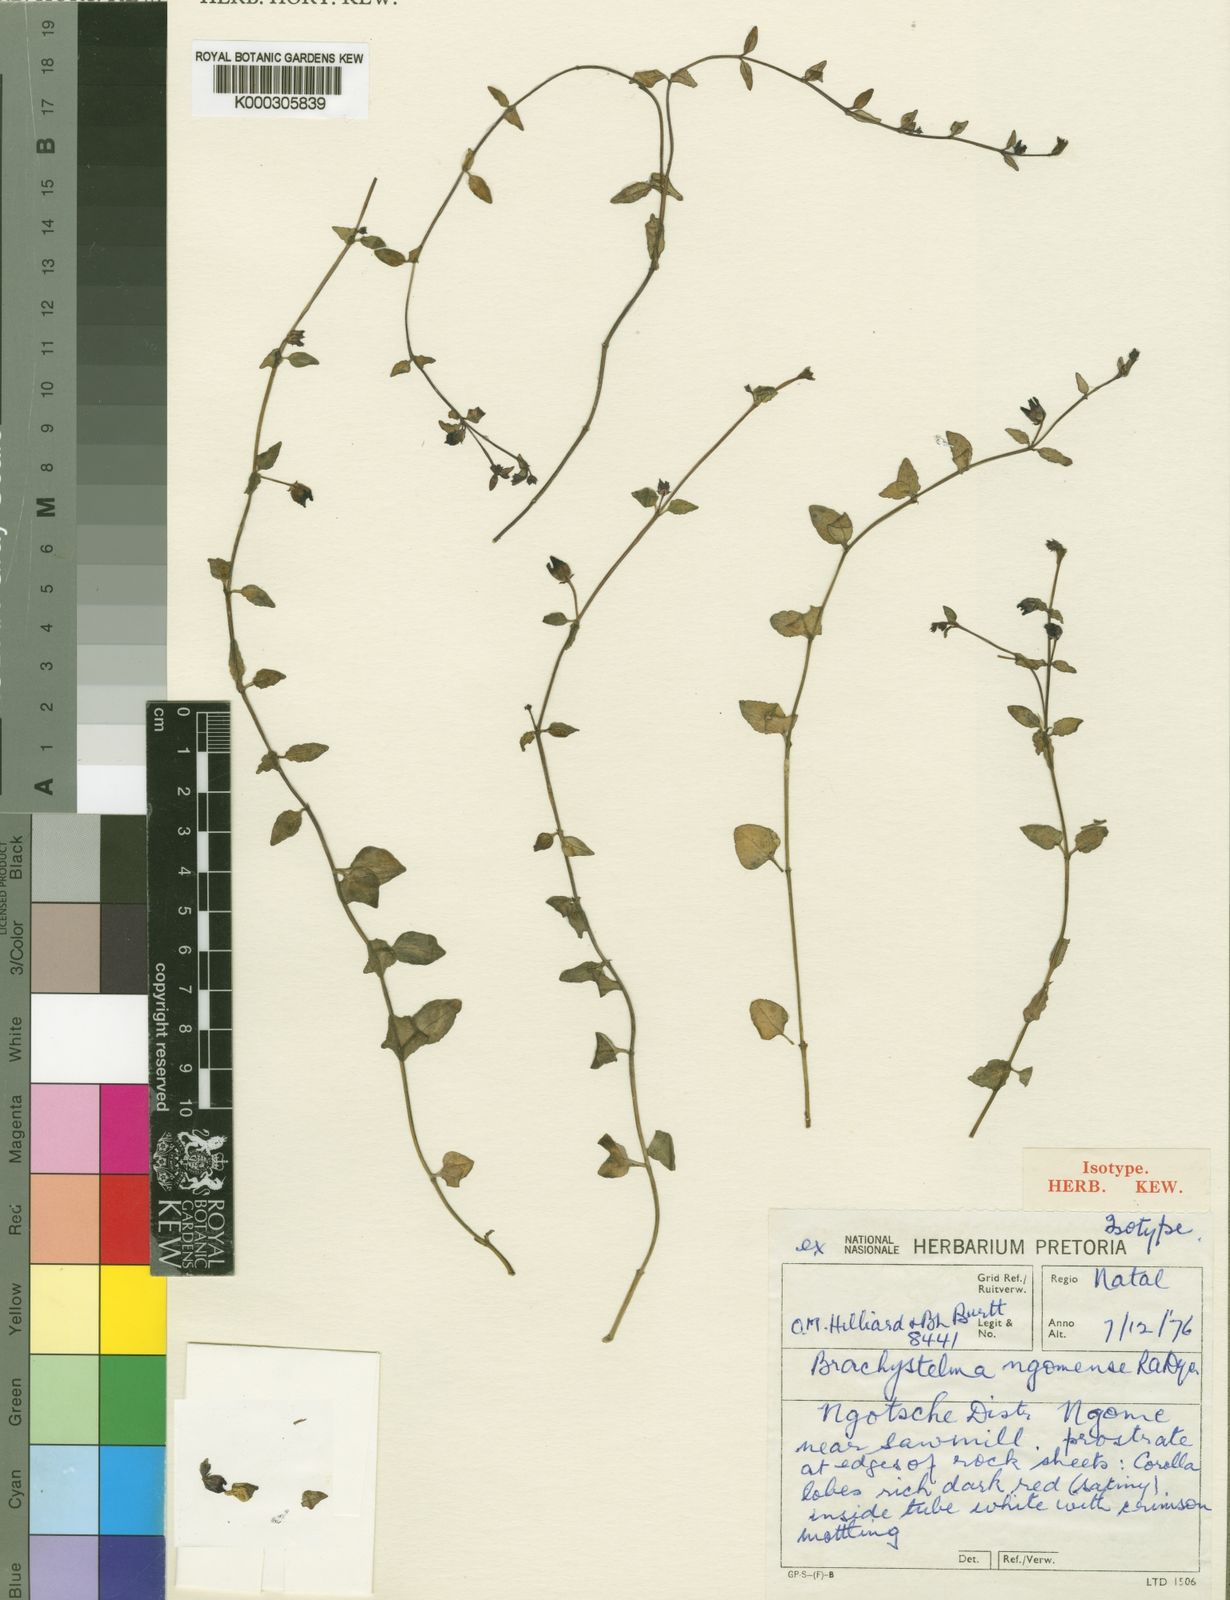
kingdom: Plantae
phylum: Tracheophyta
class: Magnoliopsida
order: Gentianales
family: Apocynaceae
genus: Ceropegia
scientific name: Ceropegia ngomensis
